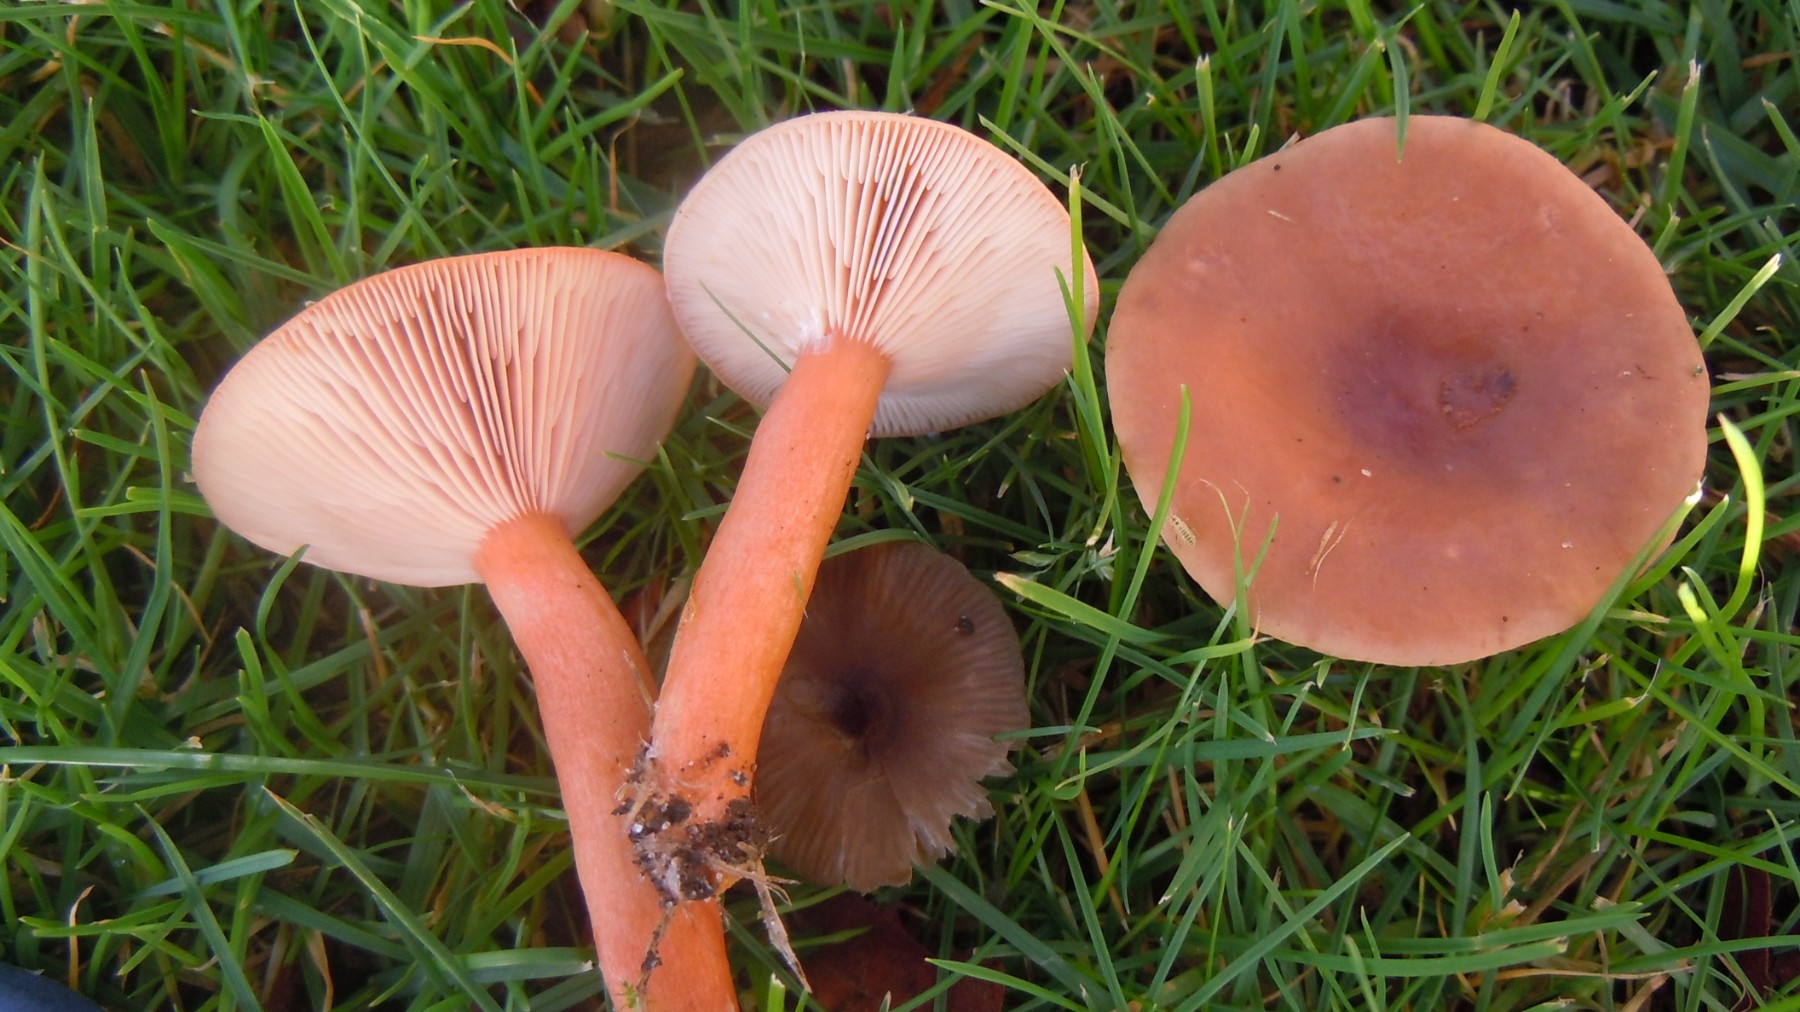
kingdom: Fungi
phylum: Basidiomycota
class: Agaricomycetes
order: Russulales
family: Russulaceae
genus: Lactarius
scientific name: Lactarius subdulcis
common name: sødlig mælkehat
